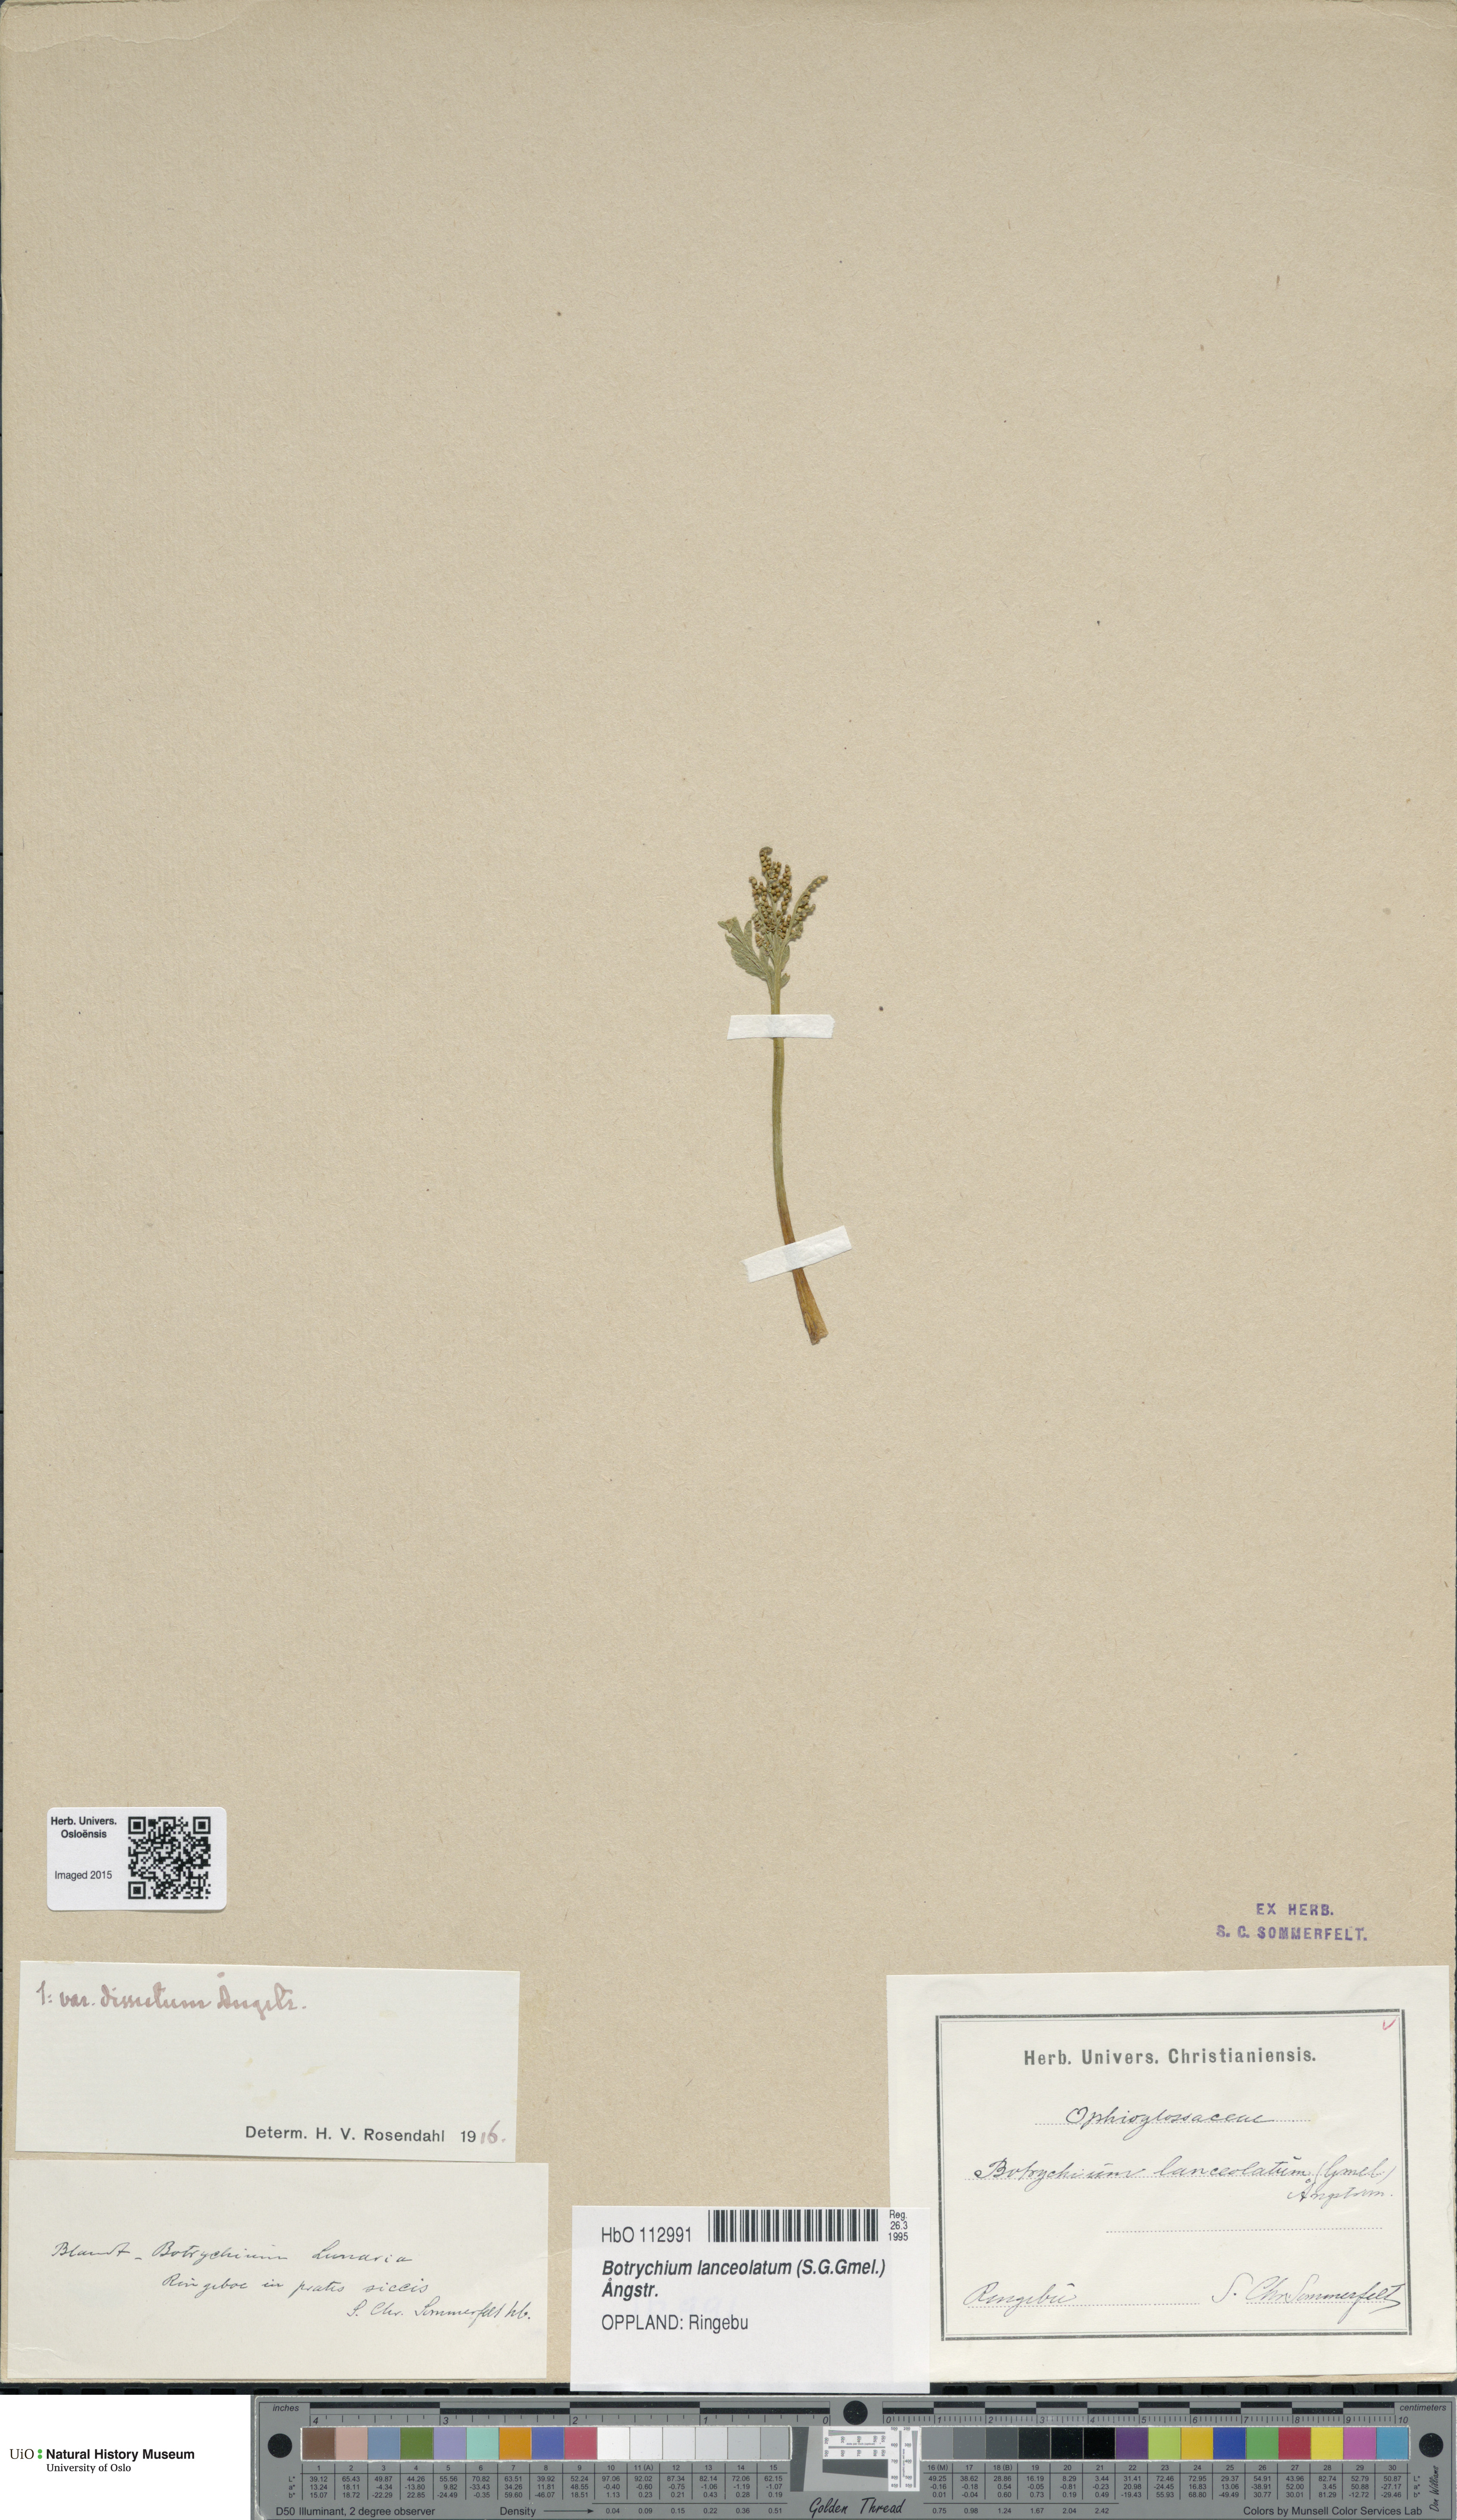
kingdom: Plantae
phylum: Tracheophyta
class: Polypodiopsida
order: Ophioglossales
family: Ophioglossaceae
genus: Botrychium
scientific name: Botrychium lanceolatum
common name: Lance-leaved moonwort
